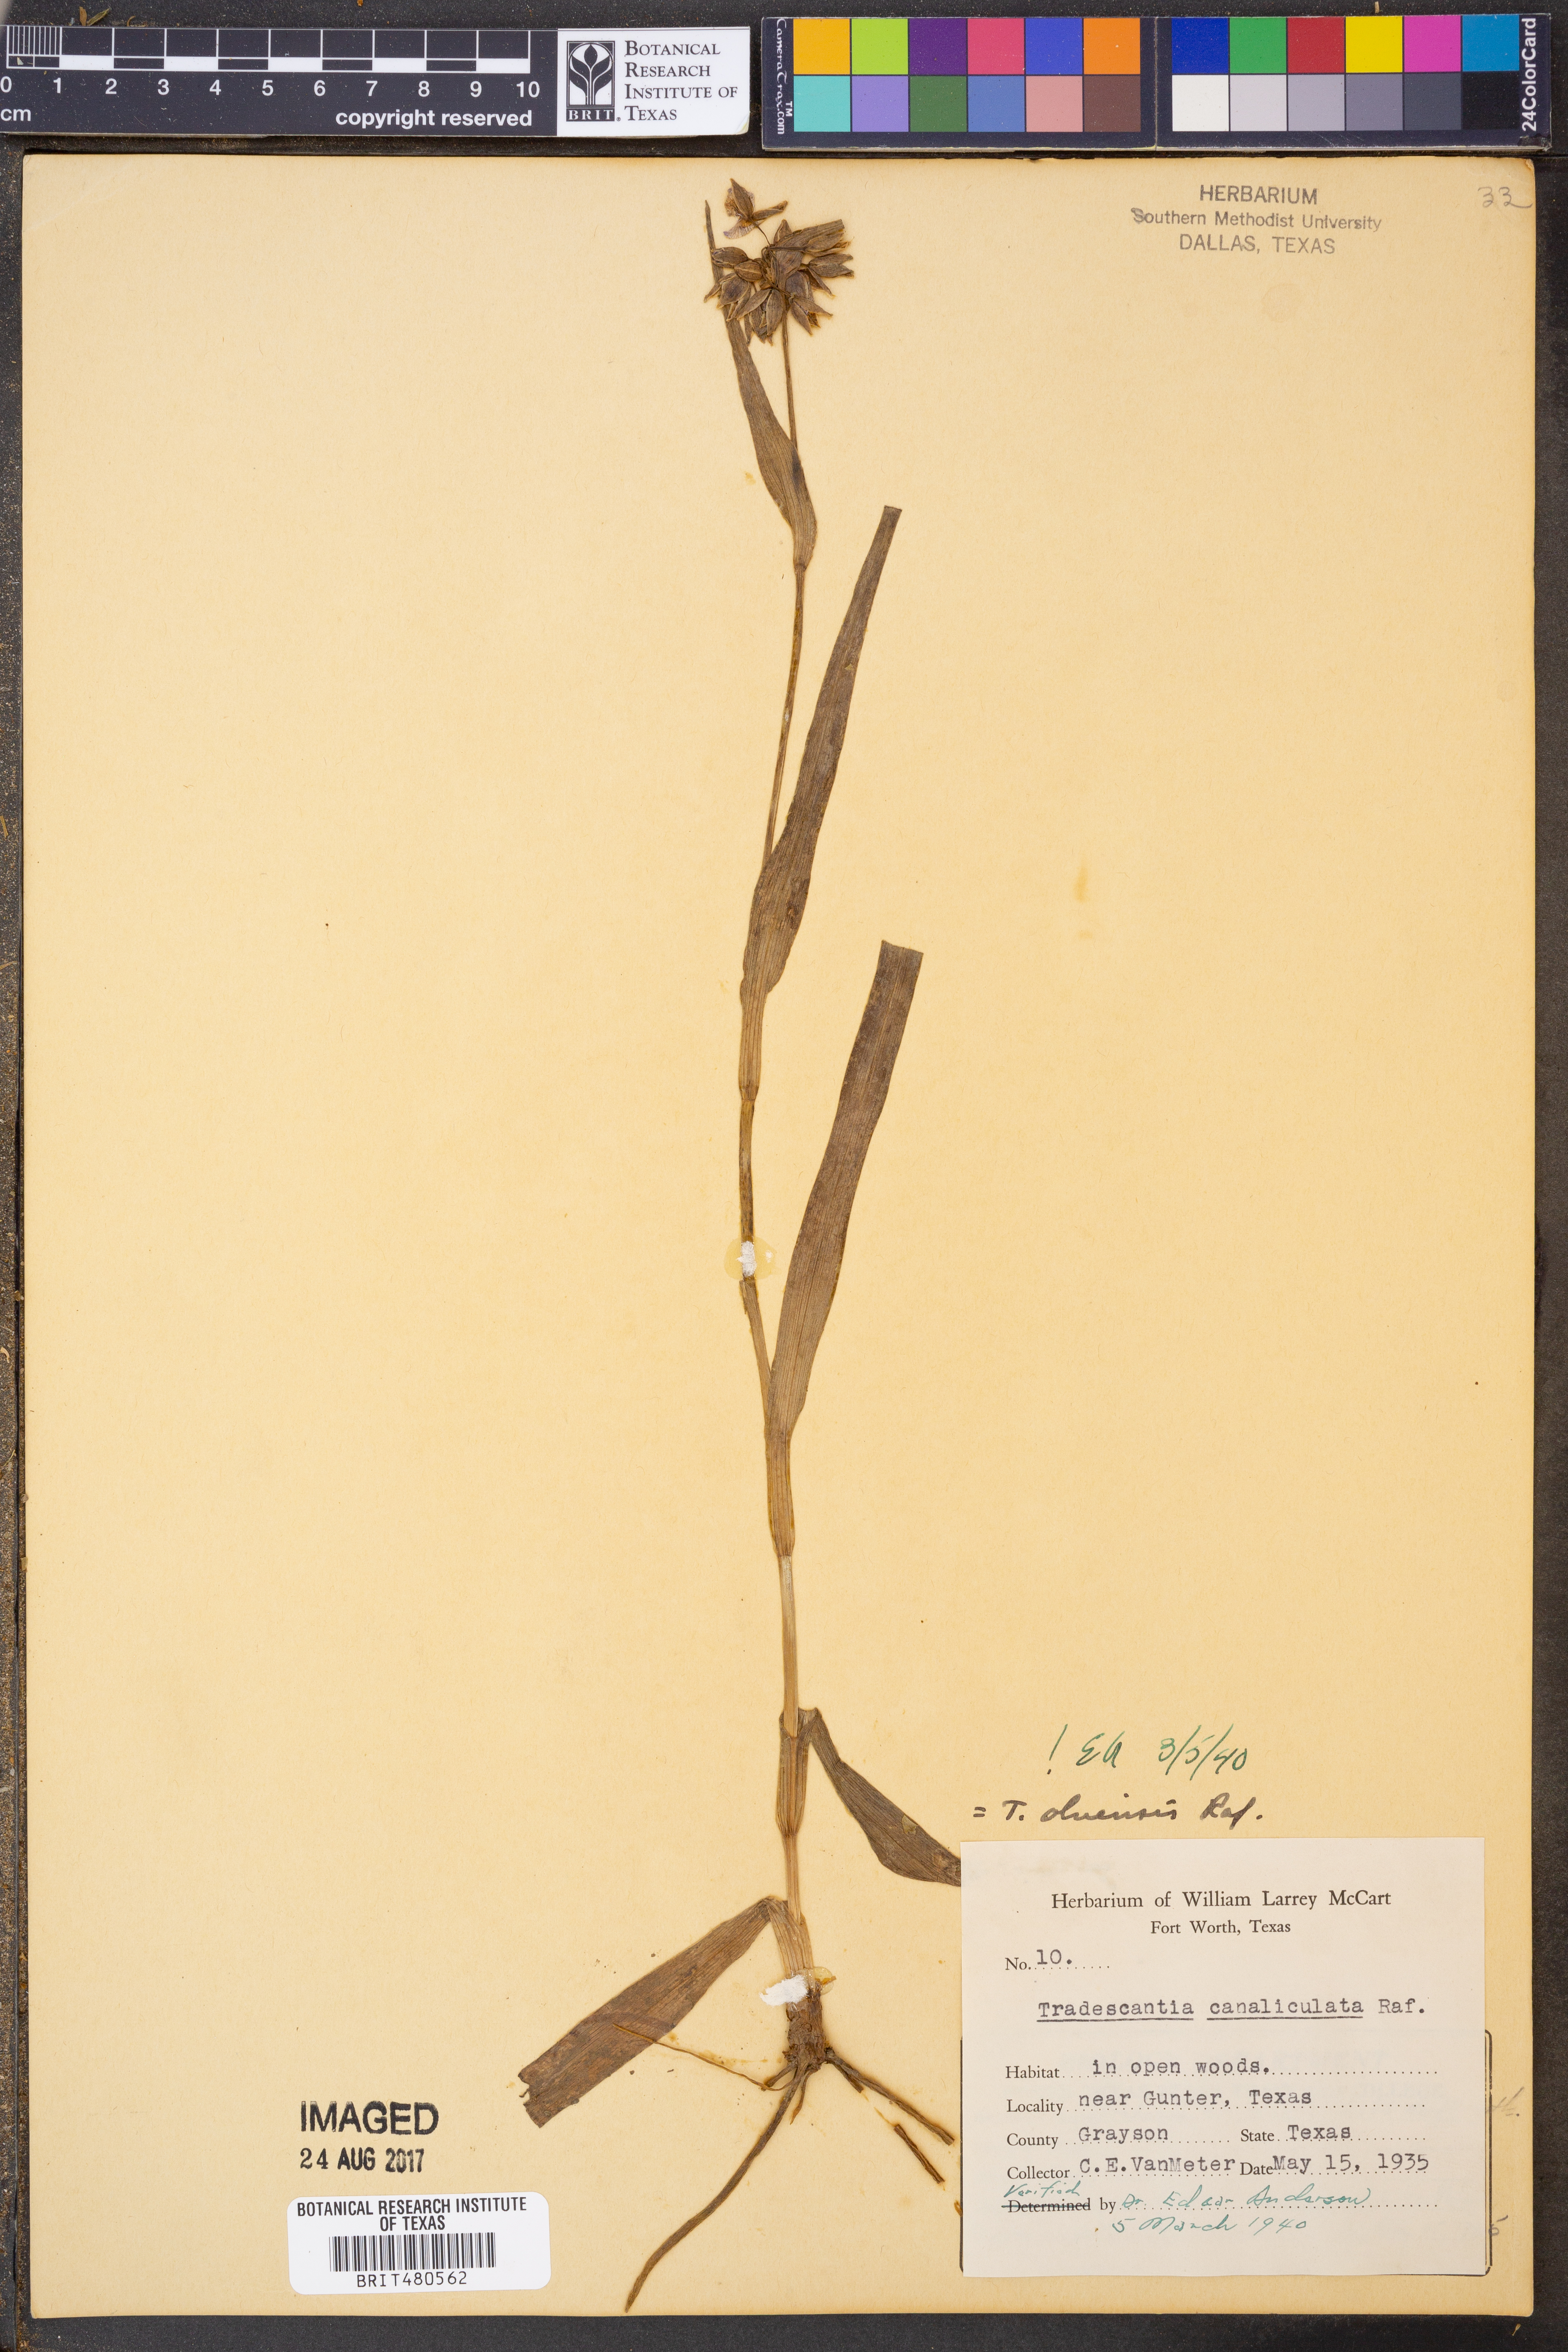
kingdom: Plantae
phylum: Tracheophyta
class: Liliopsida
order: Commelinales
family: Commelinaceae
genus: Tradescantia
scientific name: Tradescantia ohiensis
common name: Ohio spiderwort
